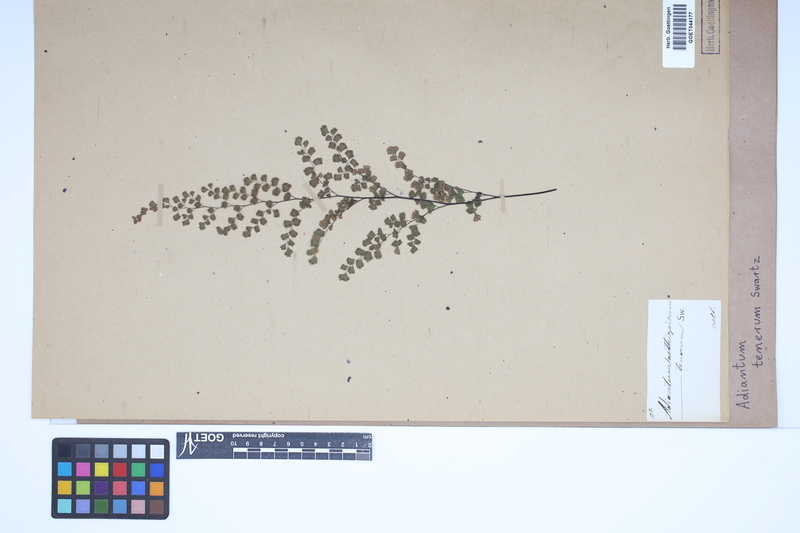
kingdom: Plantae
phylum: Tracheophyta
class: Polypodiopsida
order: Polypodiales
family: Pteridaceae
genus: Adiantum
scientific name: Adiantum tenerum
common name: Fan maidenhair
